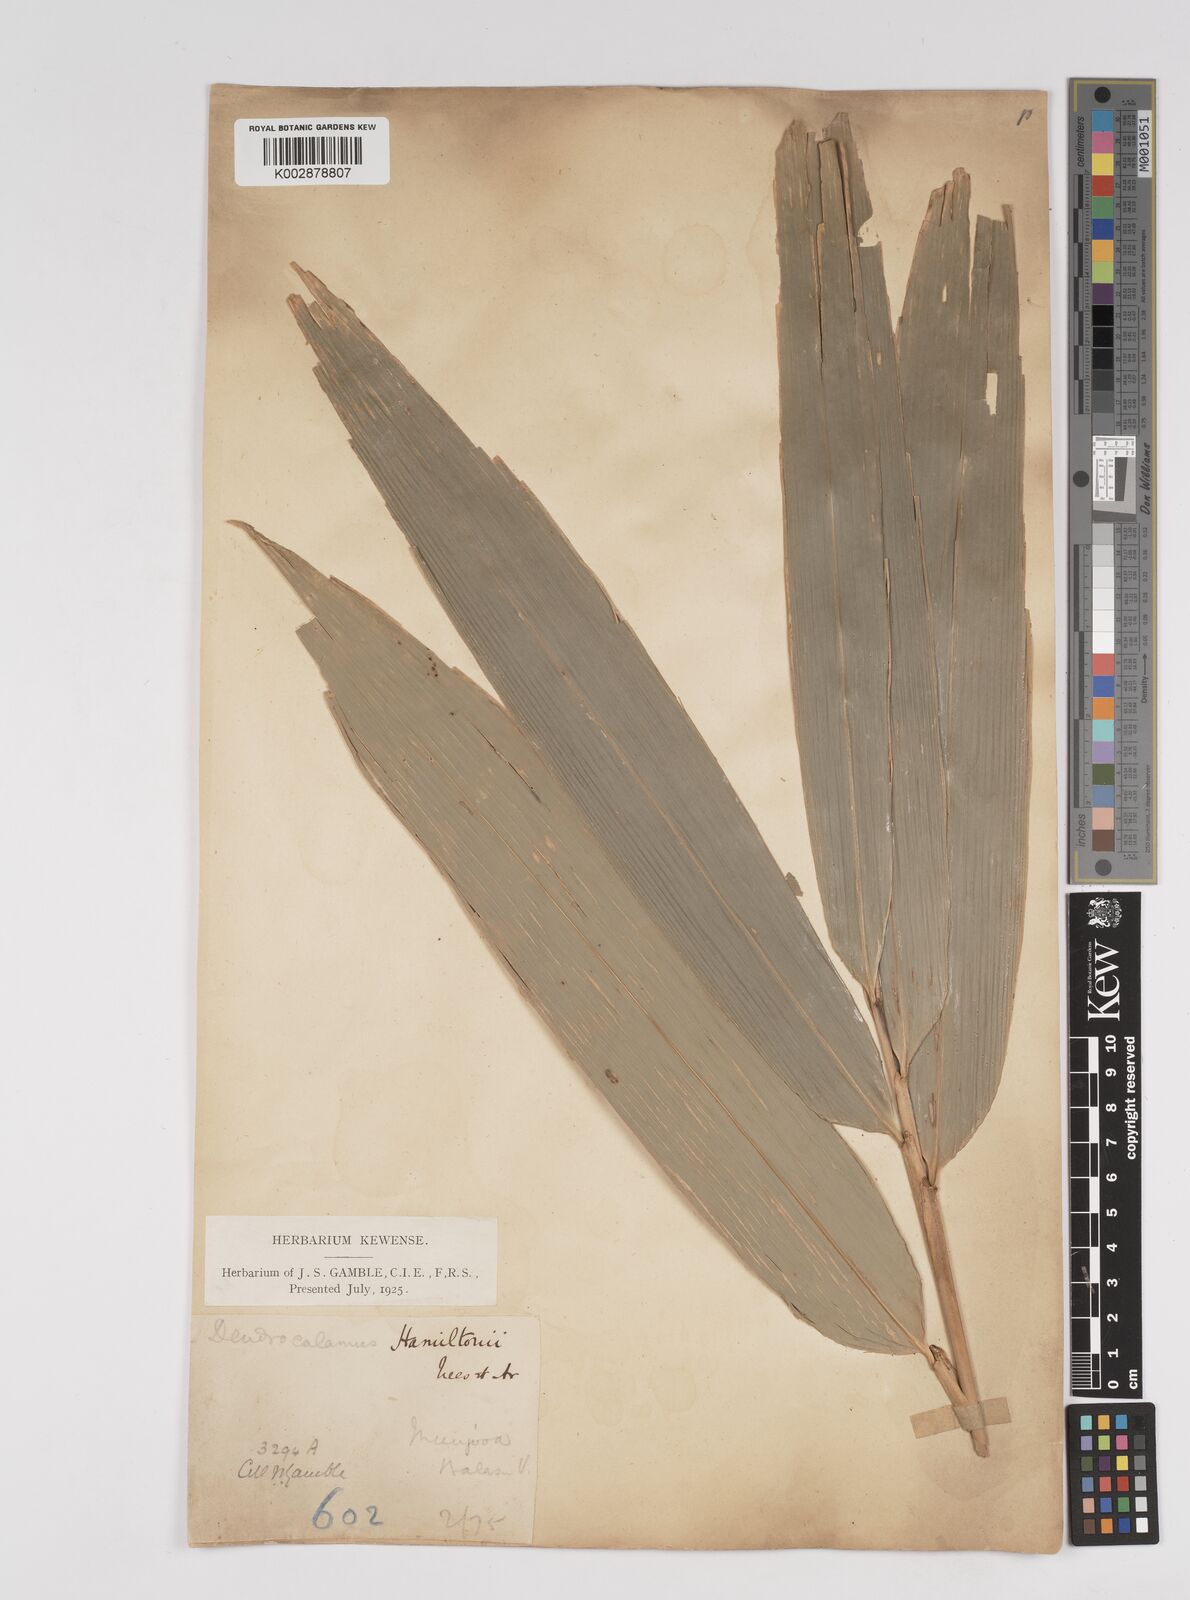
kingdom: Plantae
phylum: Tracheophyta
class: Liliopsida
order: Poales
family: Poaceae
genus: Dendrocalamus
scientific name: Dendrocalamus hamiltonii
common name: Tama bamboo
